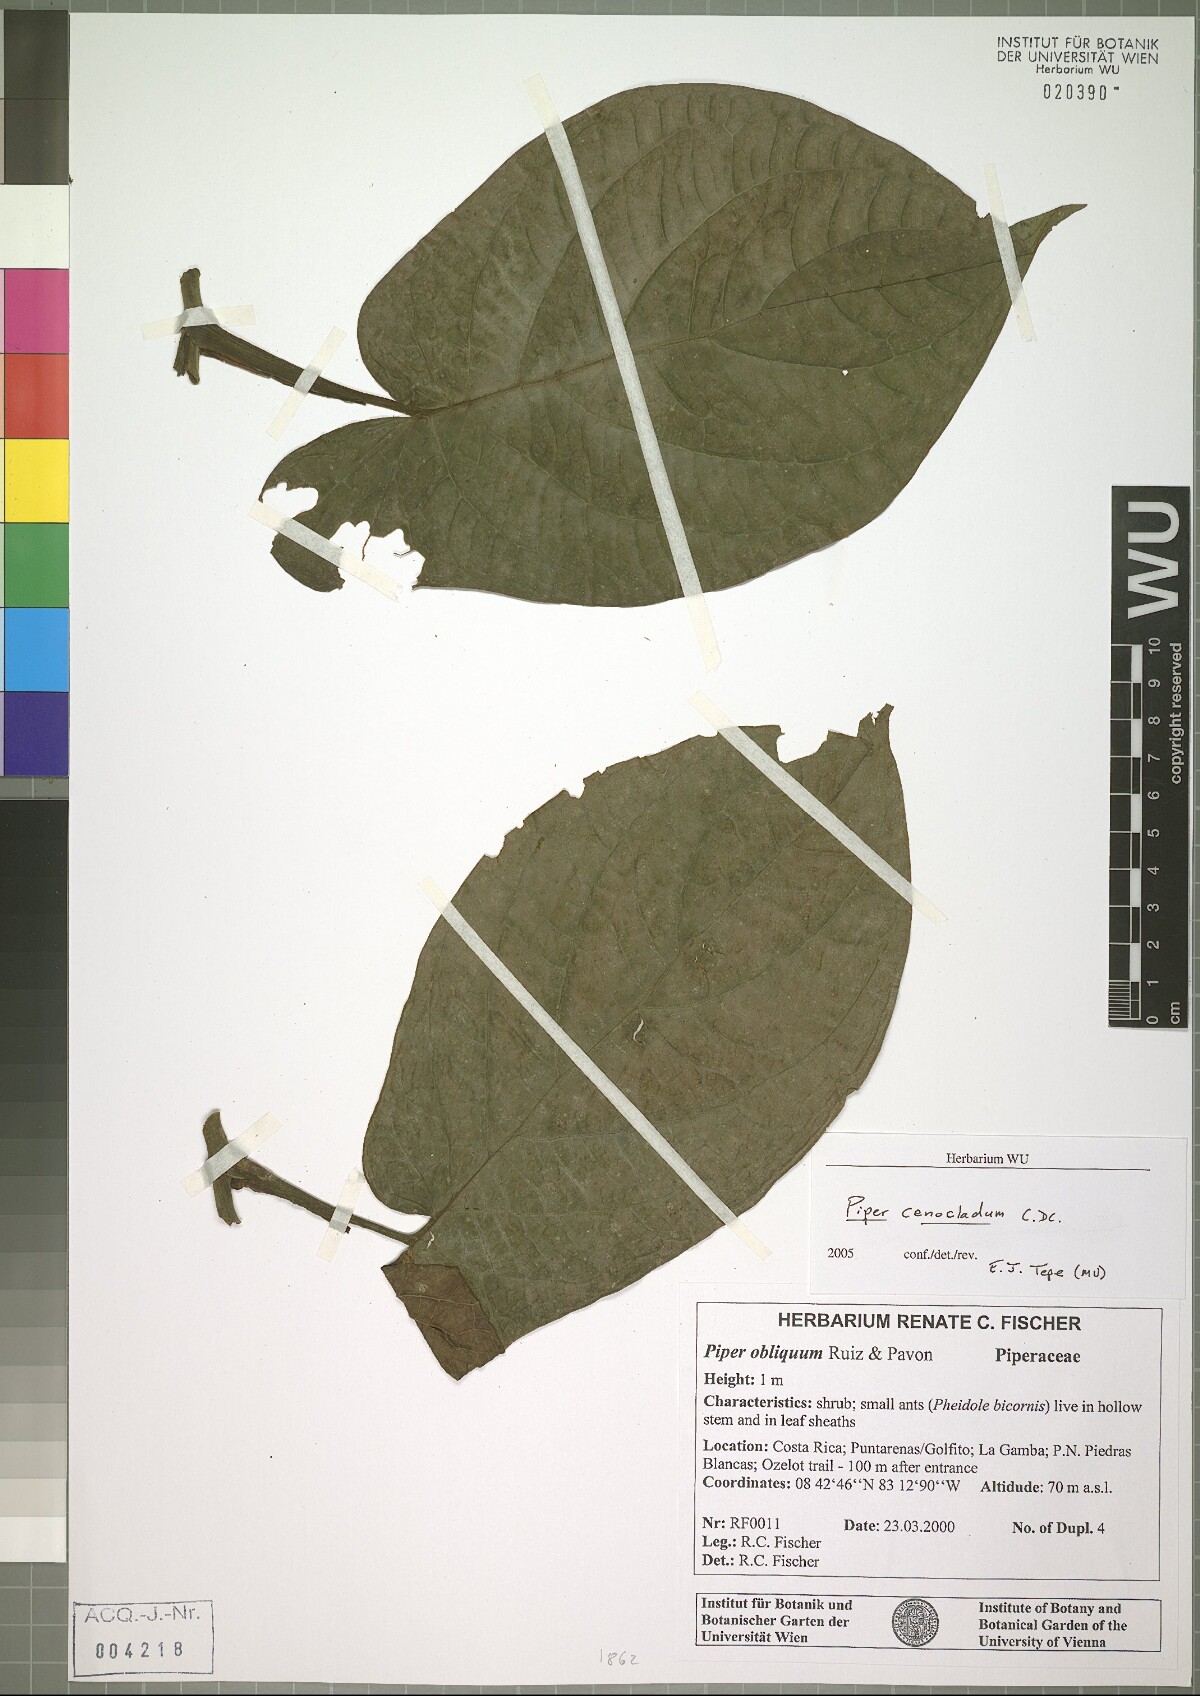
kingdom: Plantae
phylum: Tracheophyta
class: Magnoliopsida
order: Piperales
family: Piperaceae
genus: Piper
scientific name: Piper cenocladum
